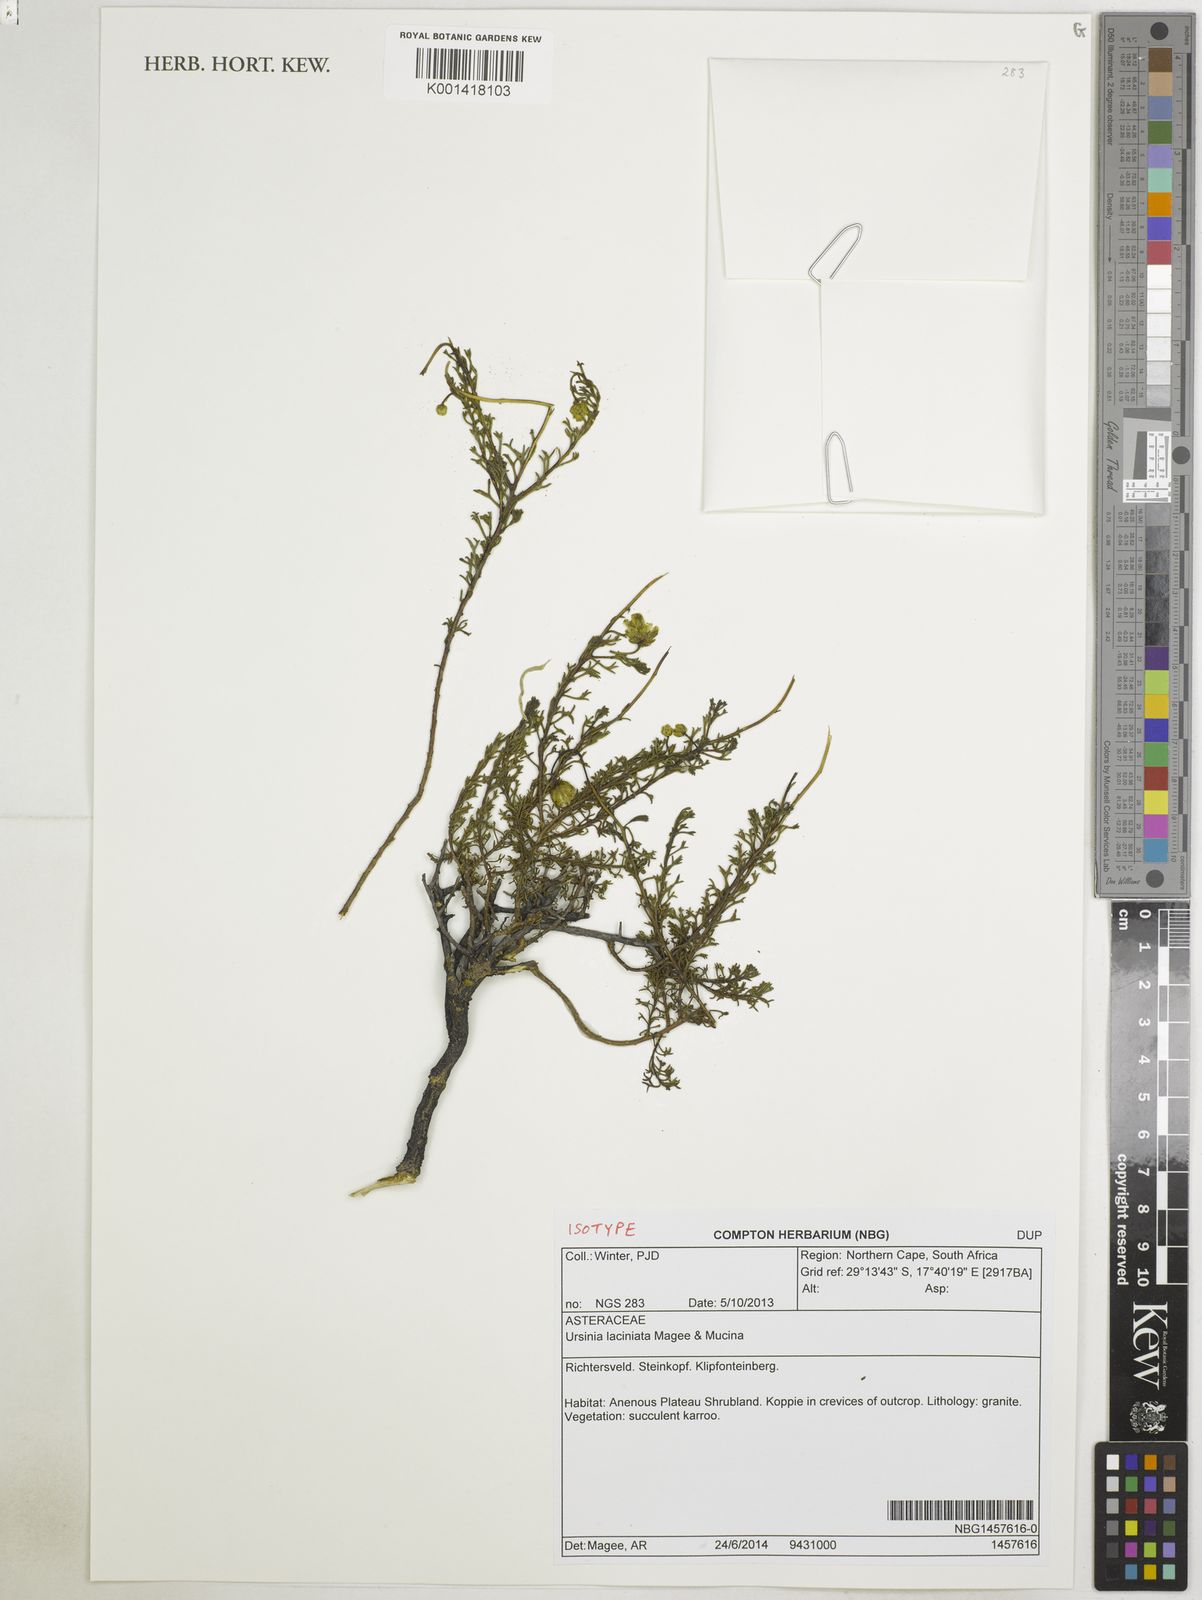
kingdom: Plantae
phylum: Tracheophyta
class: Magnoliopsida
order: Asterales
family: Asteraceae
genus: Ursinia
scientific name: Ursinia laciniata
